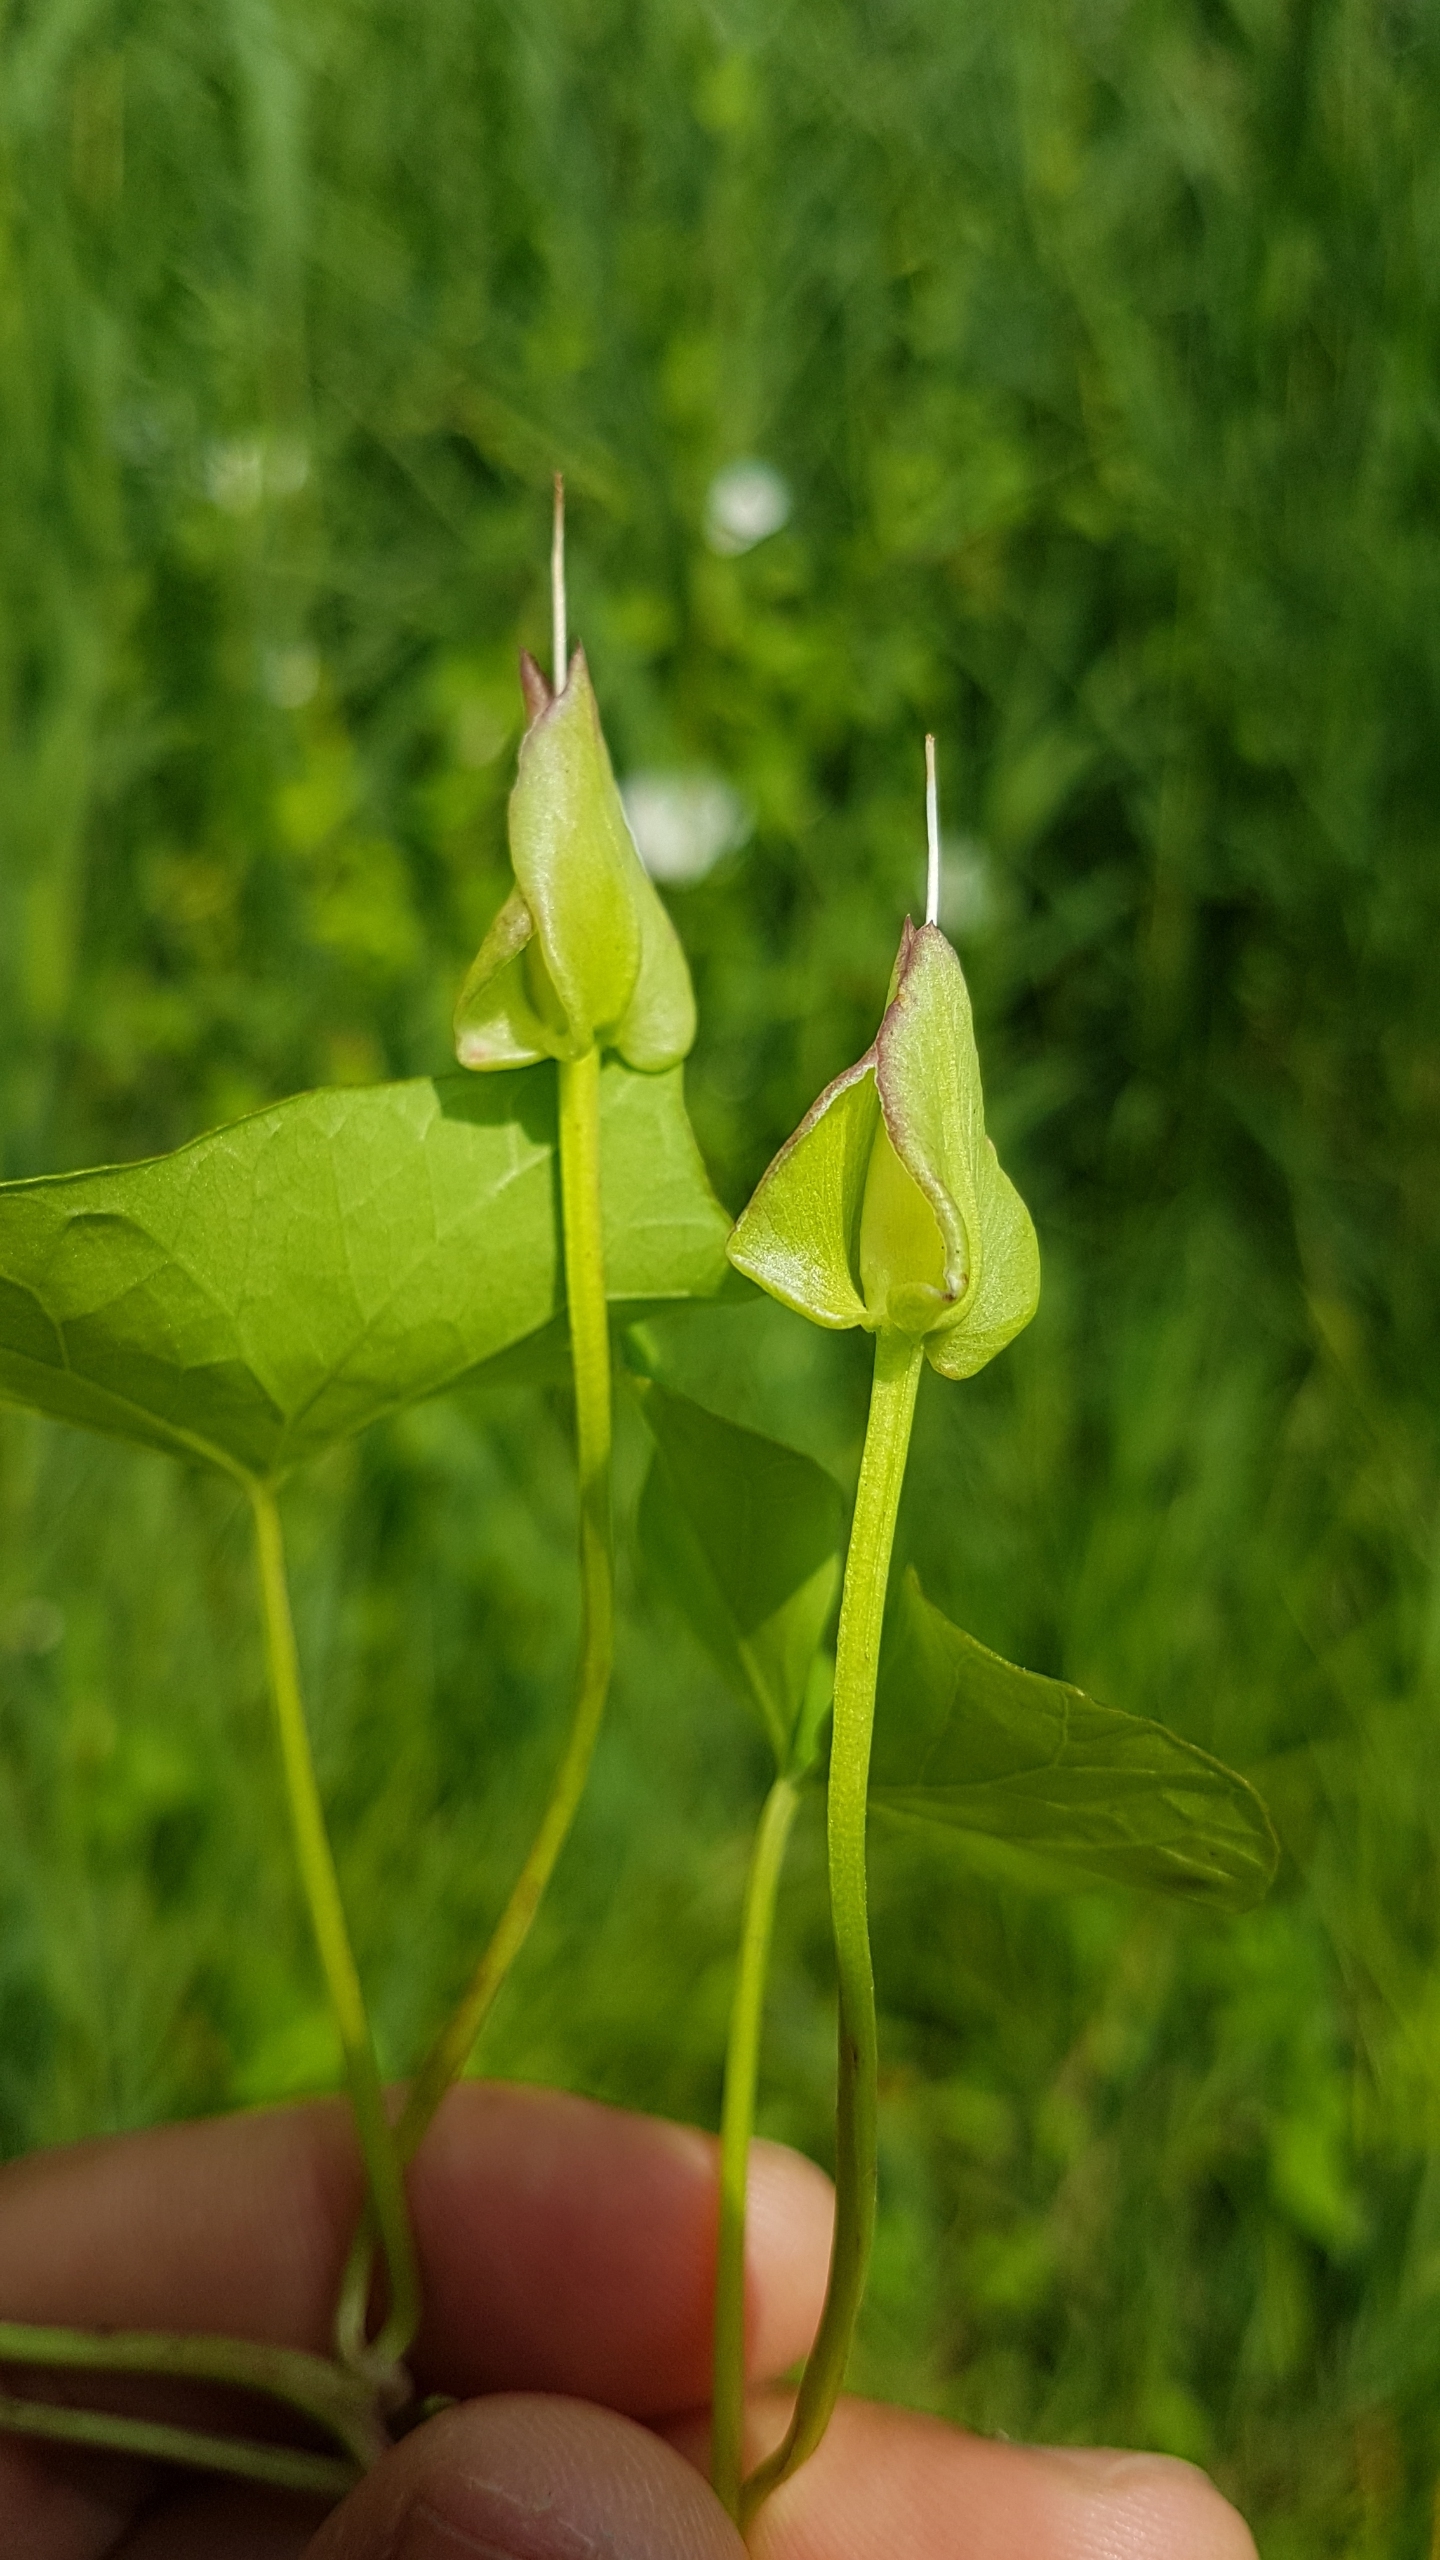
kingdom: Plantae
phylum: Tracheophyta
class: Magnoliopsida
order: Solanales
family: Convolvulaceae
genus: Calystegia
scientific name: Calystegia sepium
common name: Gærde-snerle
